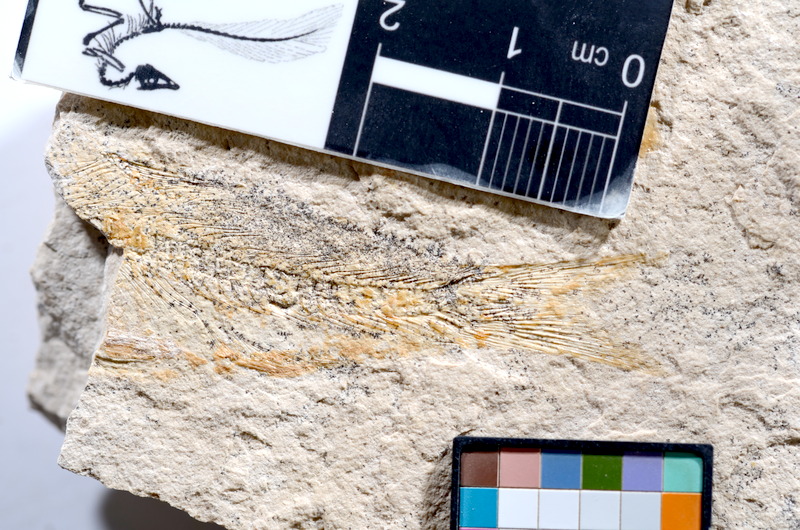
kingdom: Animalia
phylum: Chordata
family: Ascalaboidae
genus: Tharsis
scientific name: Tharsis dubius
